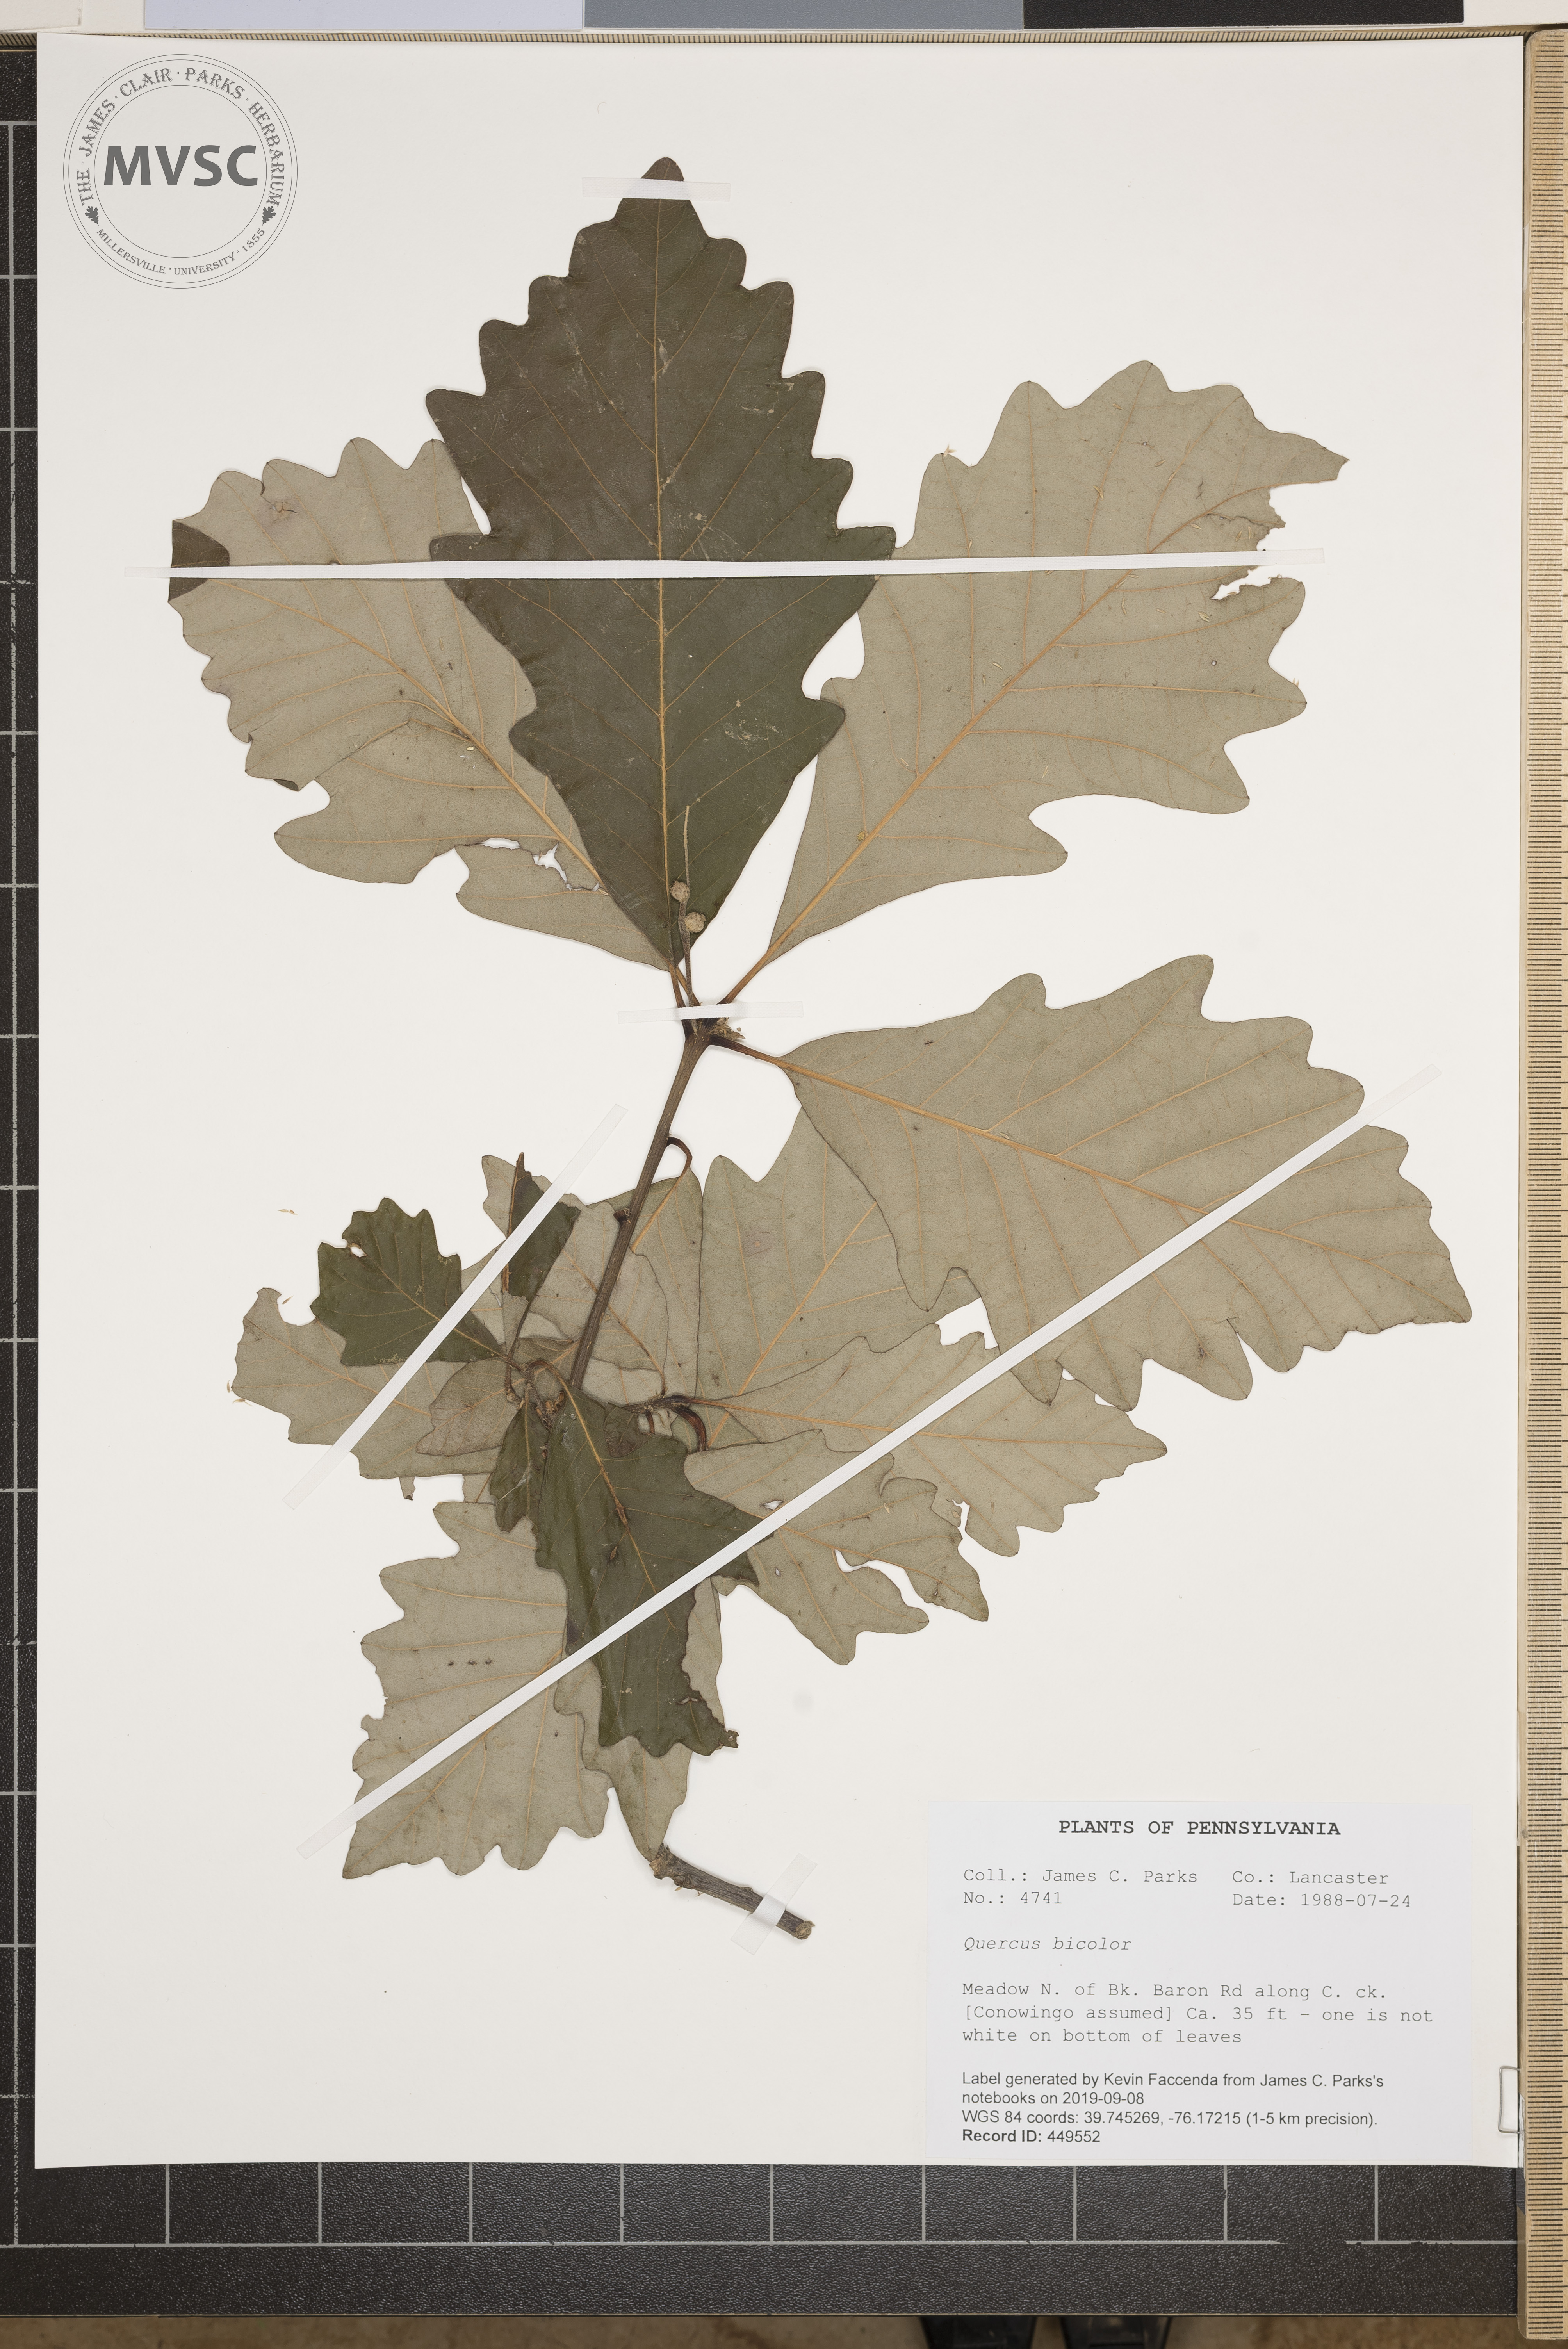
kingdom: Plantae
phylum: Tracheophyta
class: Magnoliopsida
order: Fagales
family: Fagaceae
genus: Quercus
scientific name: Quercus bicolor
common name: Swamp white oak
